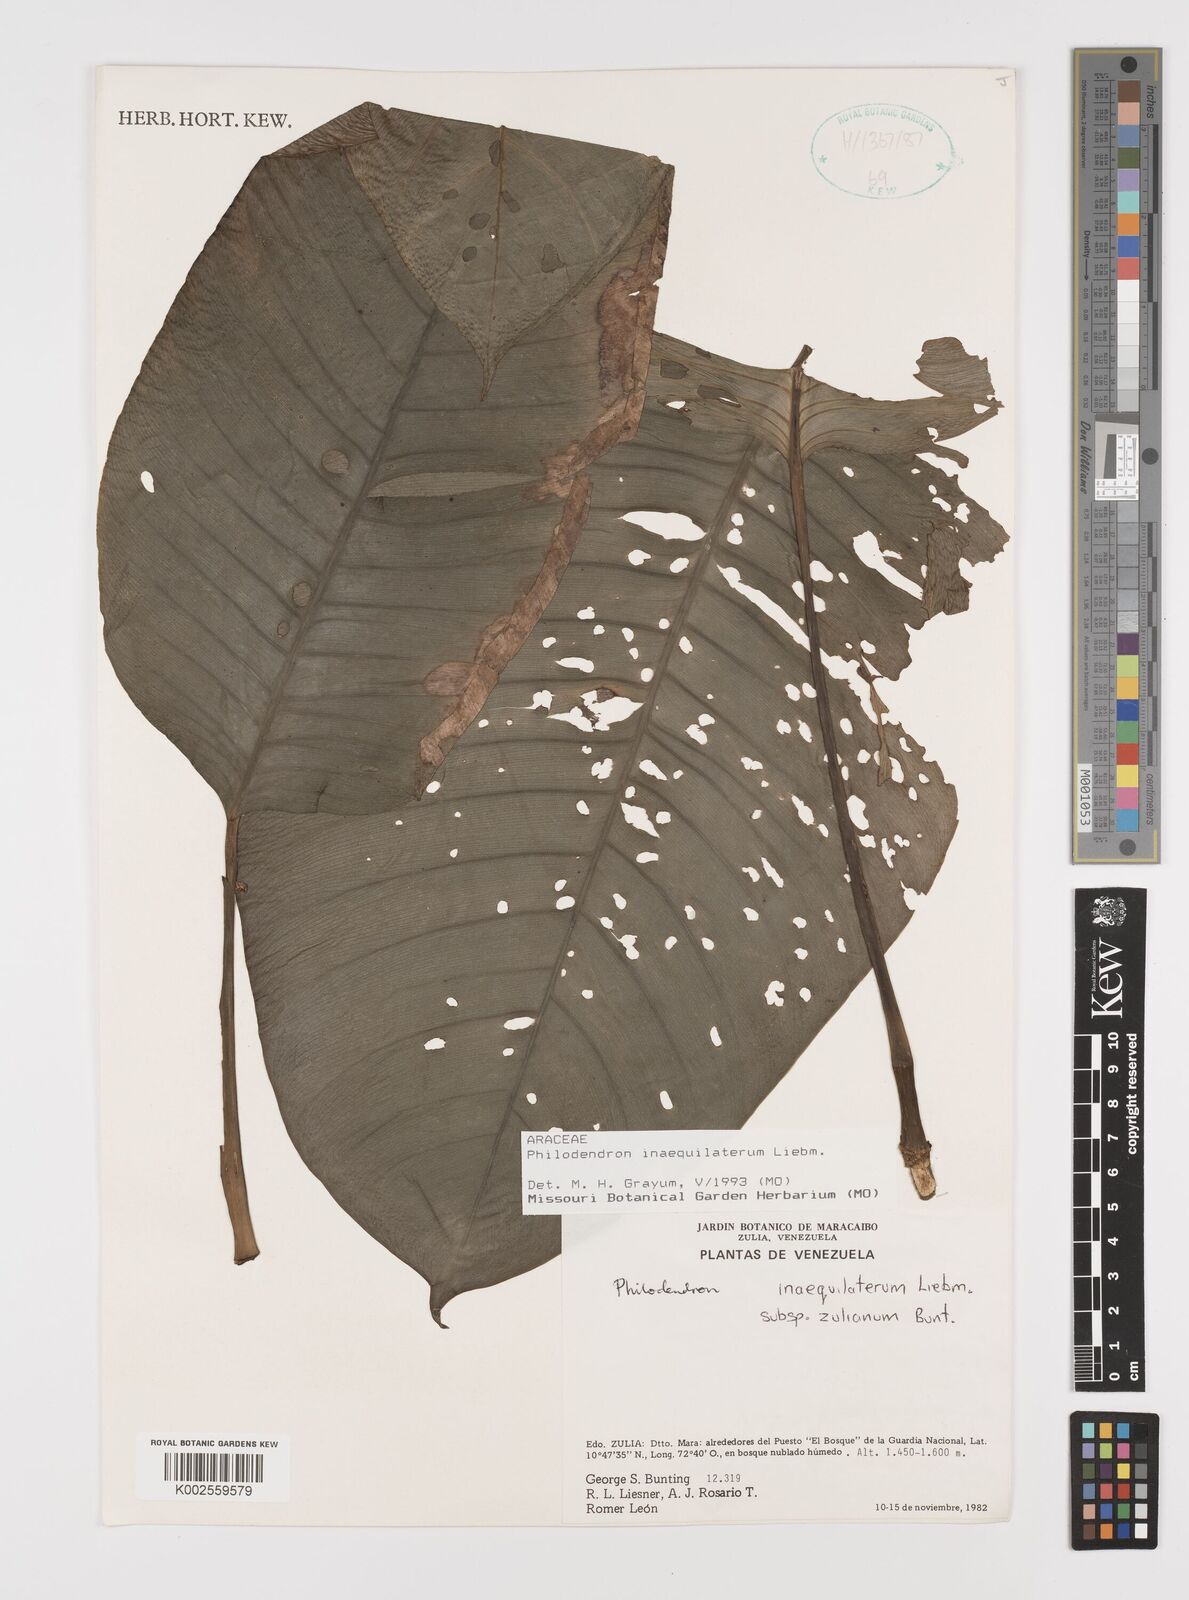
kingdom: Plantae
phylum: Tracheophyta
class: Liliopsida
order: Alismatales
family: Araceae
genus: Philodendron
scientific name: Philodendron inaequilaterum
